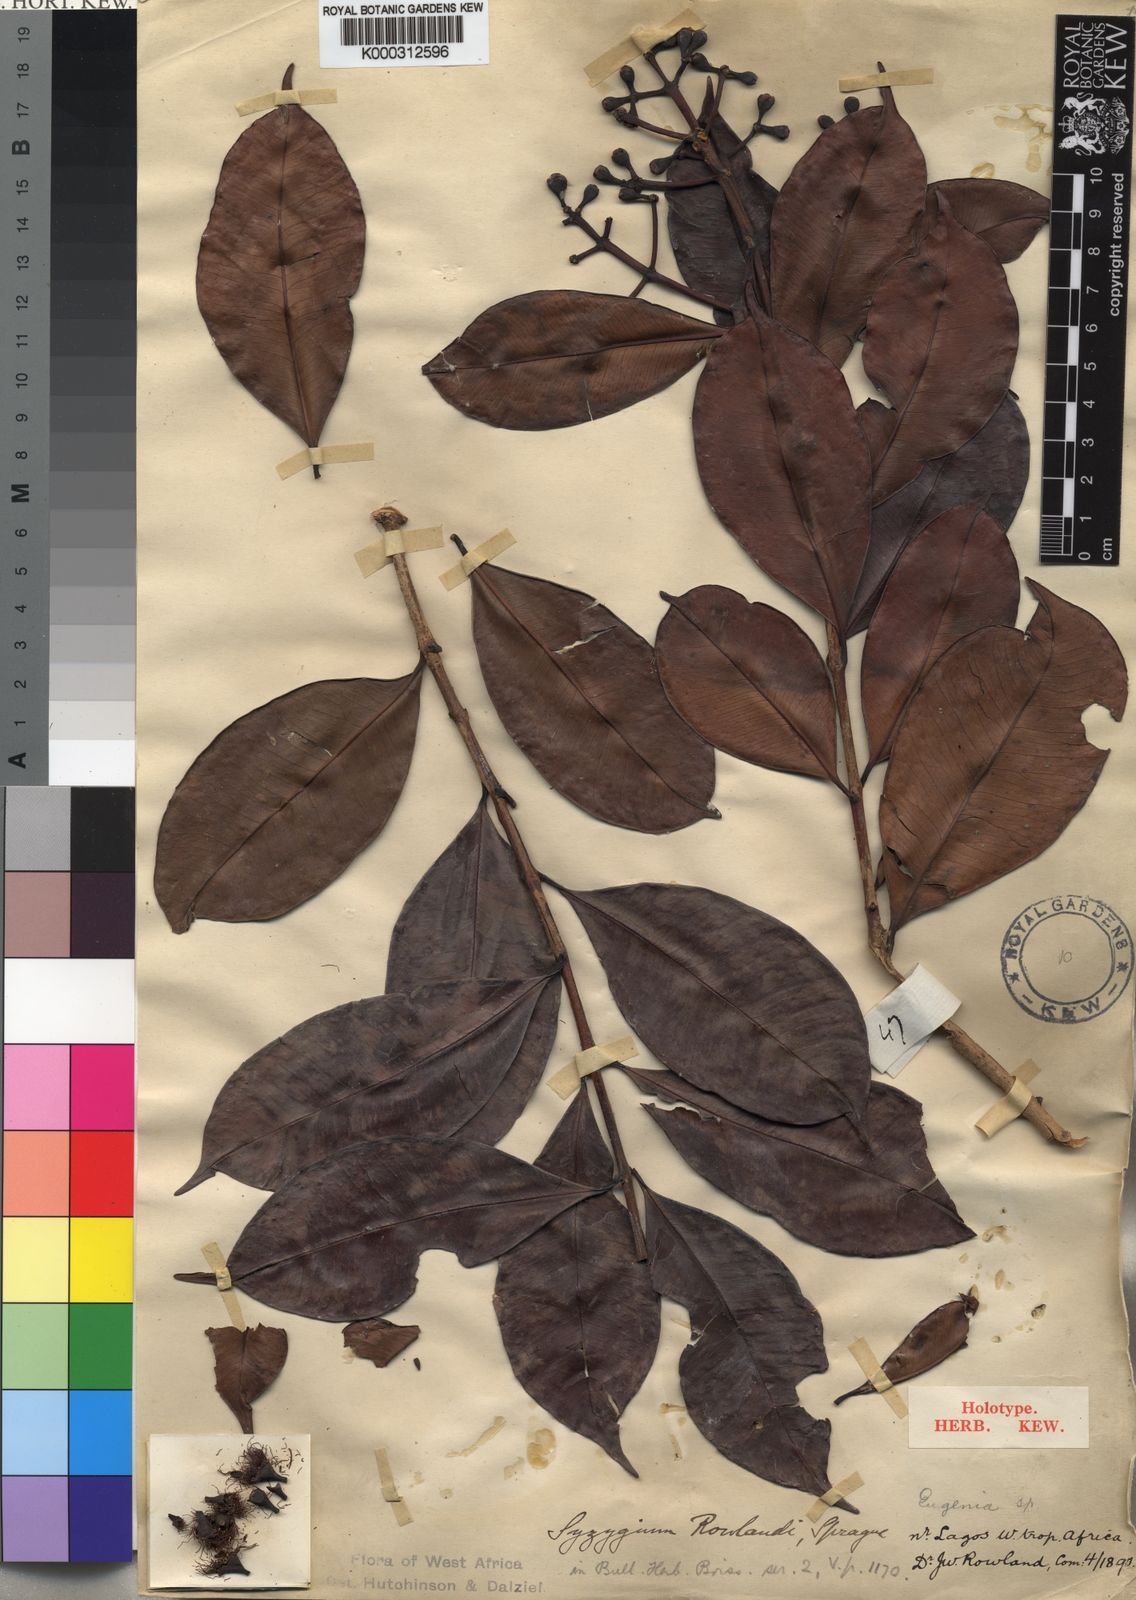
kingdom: Plantae
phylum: Tracheophyta
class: Magnoliopsida
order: Myrtales
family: Myrtaceae
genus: Syzygium
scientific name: Syzygium rowlandii
